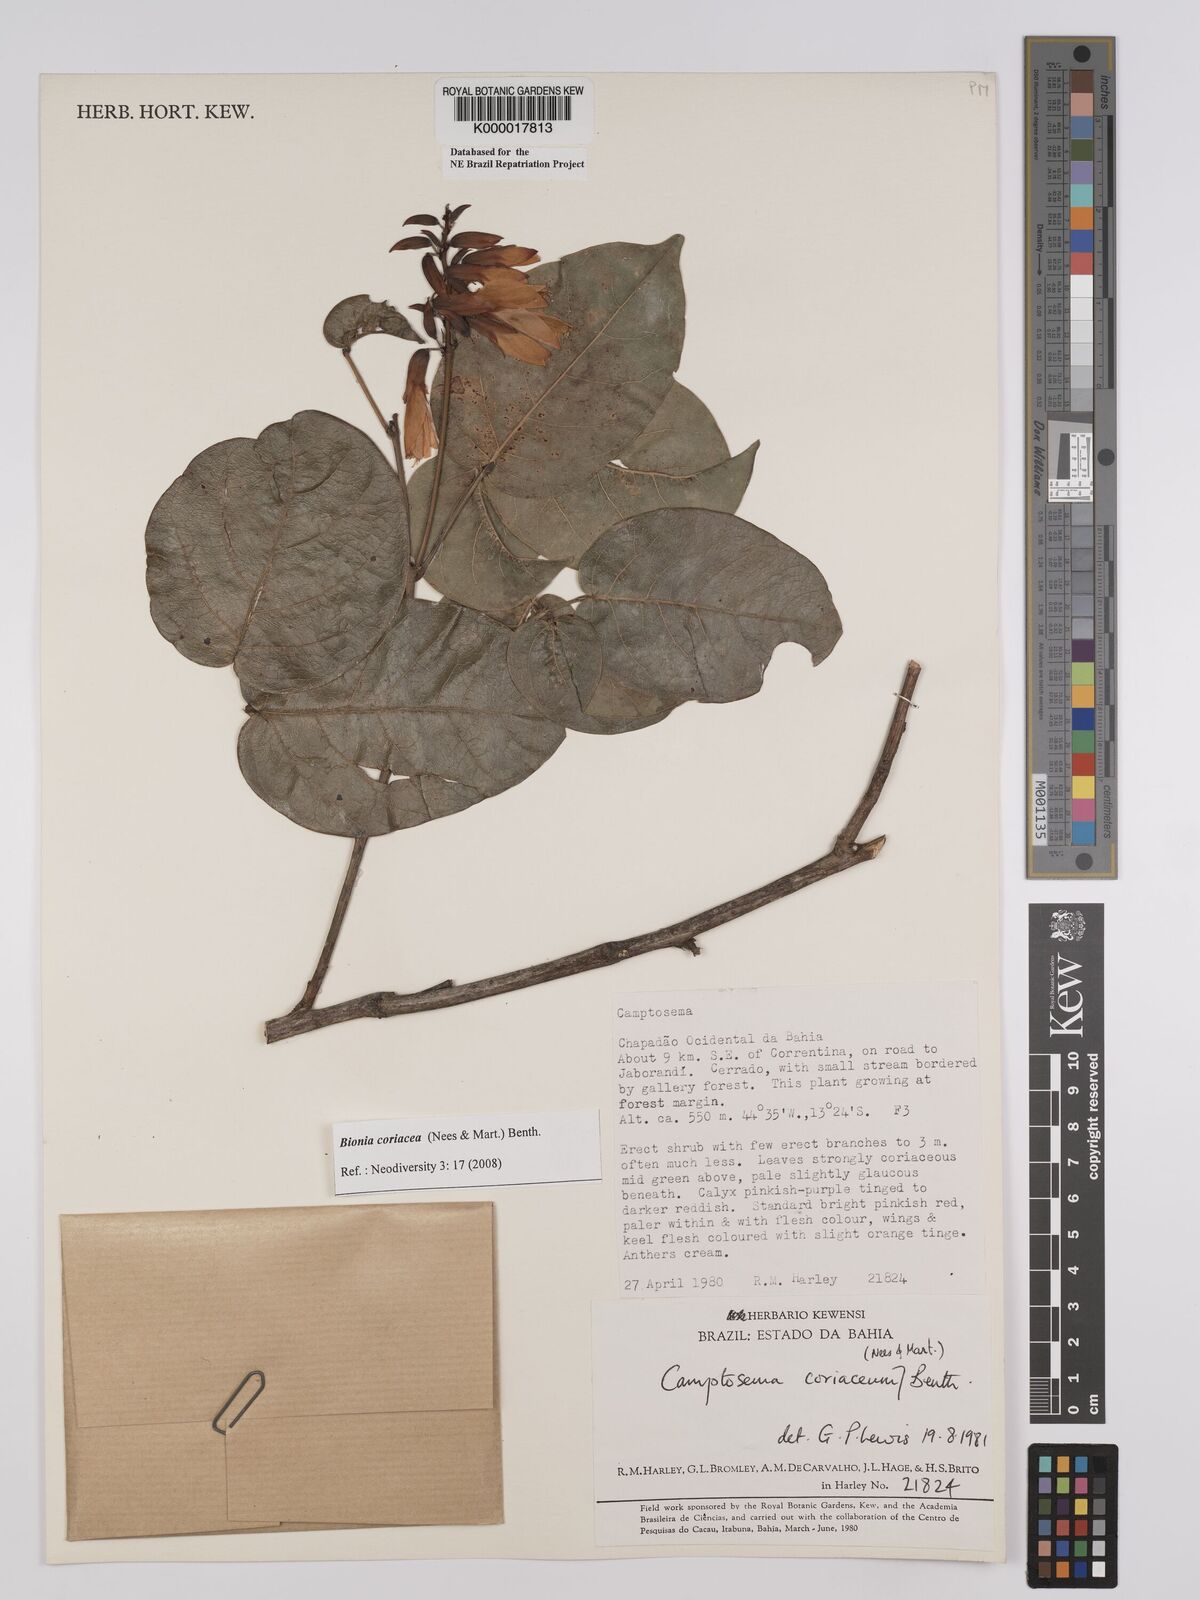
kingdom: Plantae
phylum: Tracheophyta
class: Magnoliopsida
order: Fabales
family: Fabaceae
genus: Camptosema
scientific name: Camptosema coriaceum
